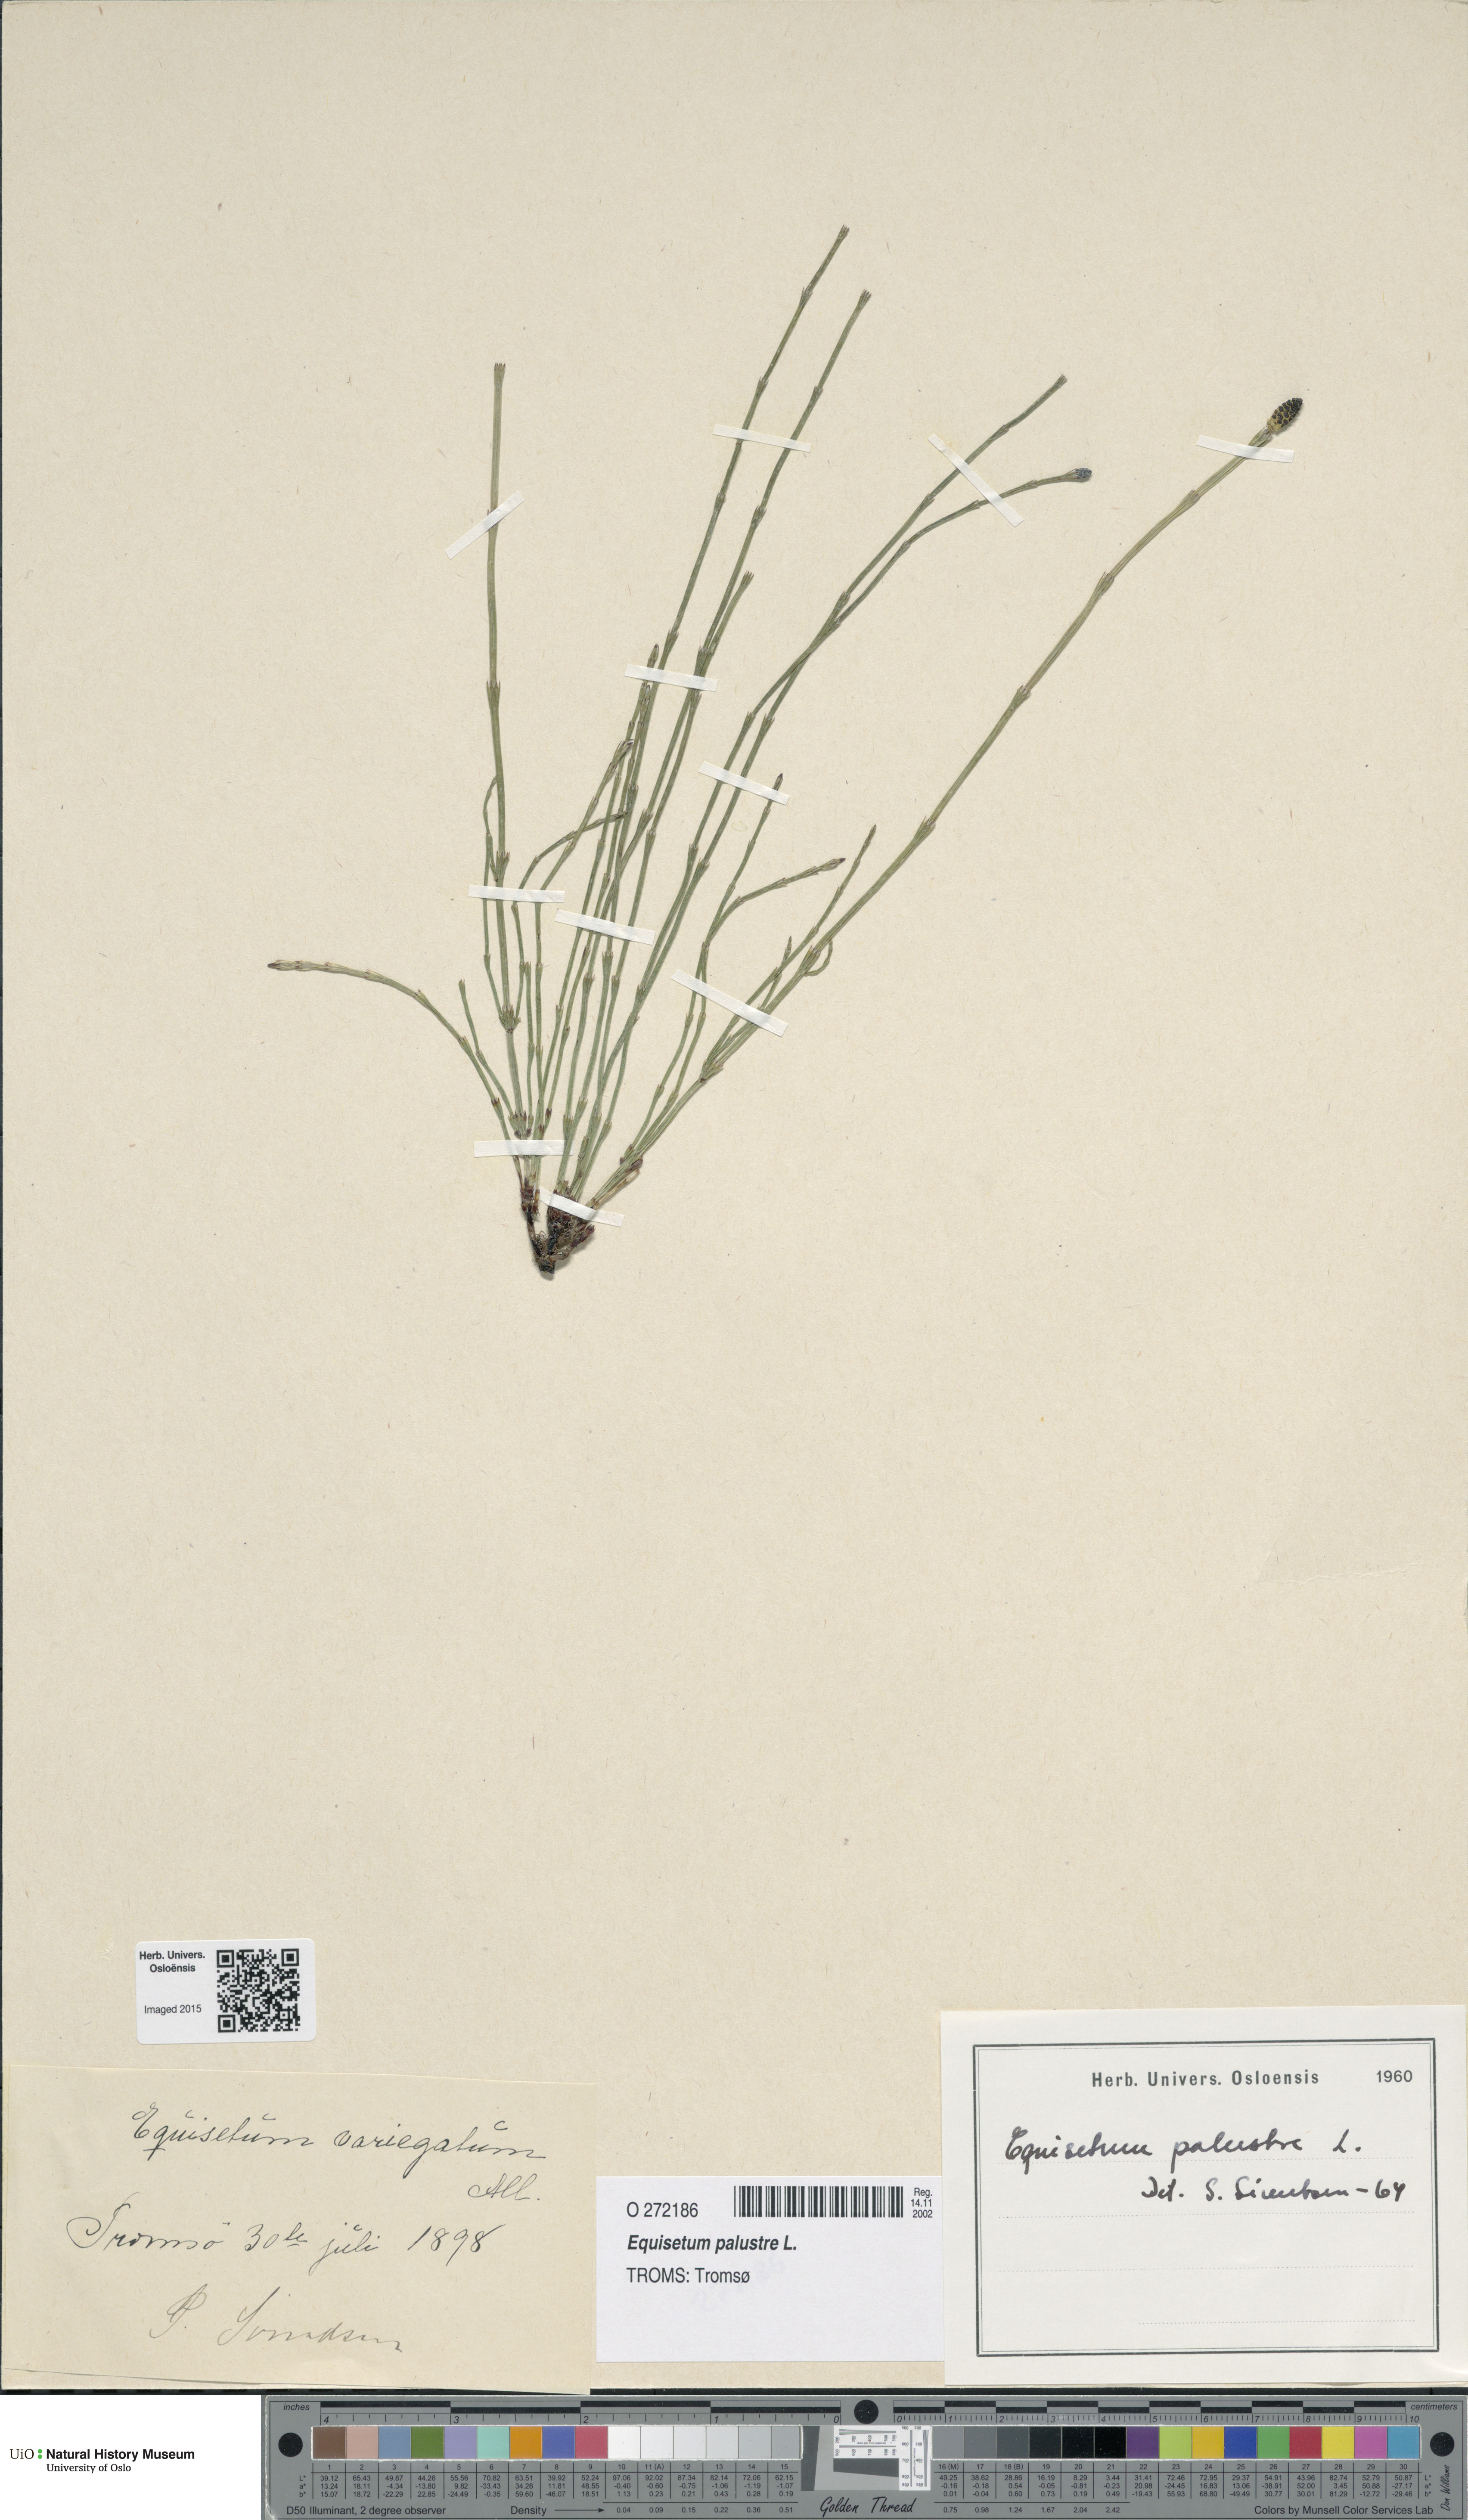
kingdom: Plantae
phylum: Tracheophyta
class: Polypodiopsida
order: Equisetales
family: Equisetaceae
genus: Equisetum
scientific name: Equisetum palustre
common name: Marsh horsetail
